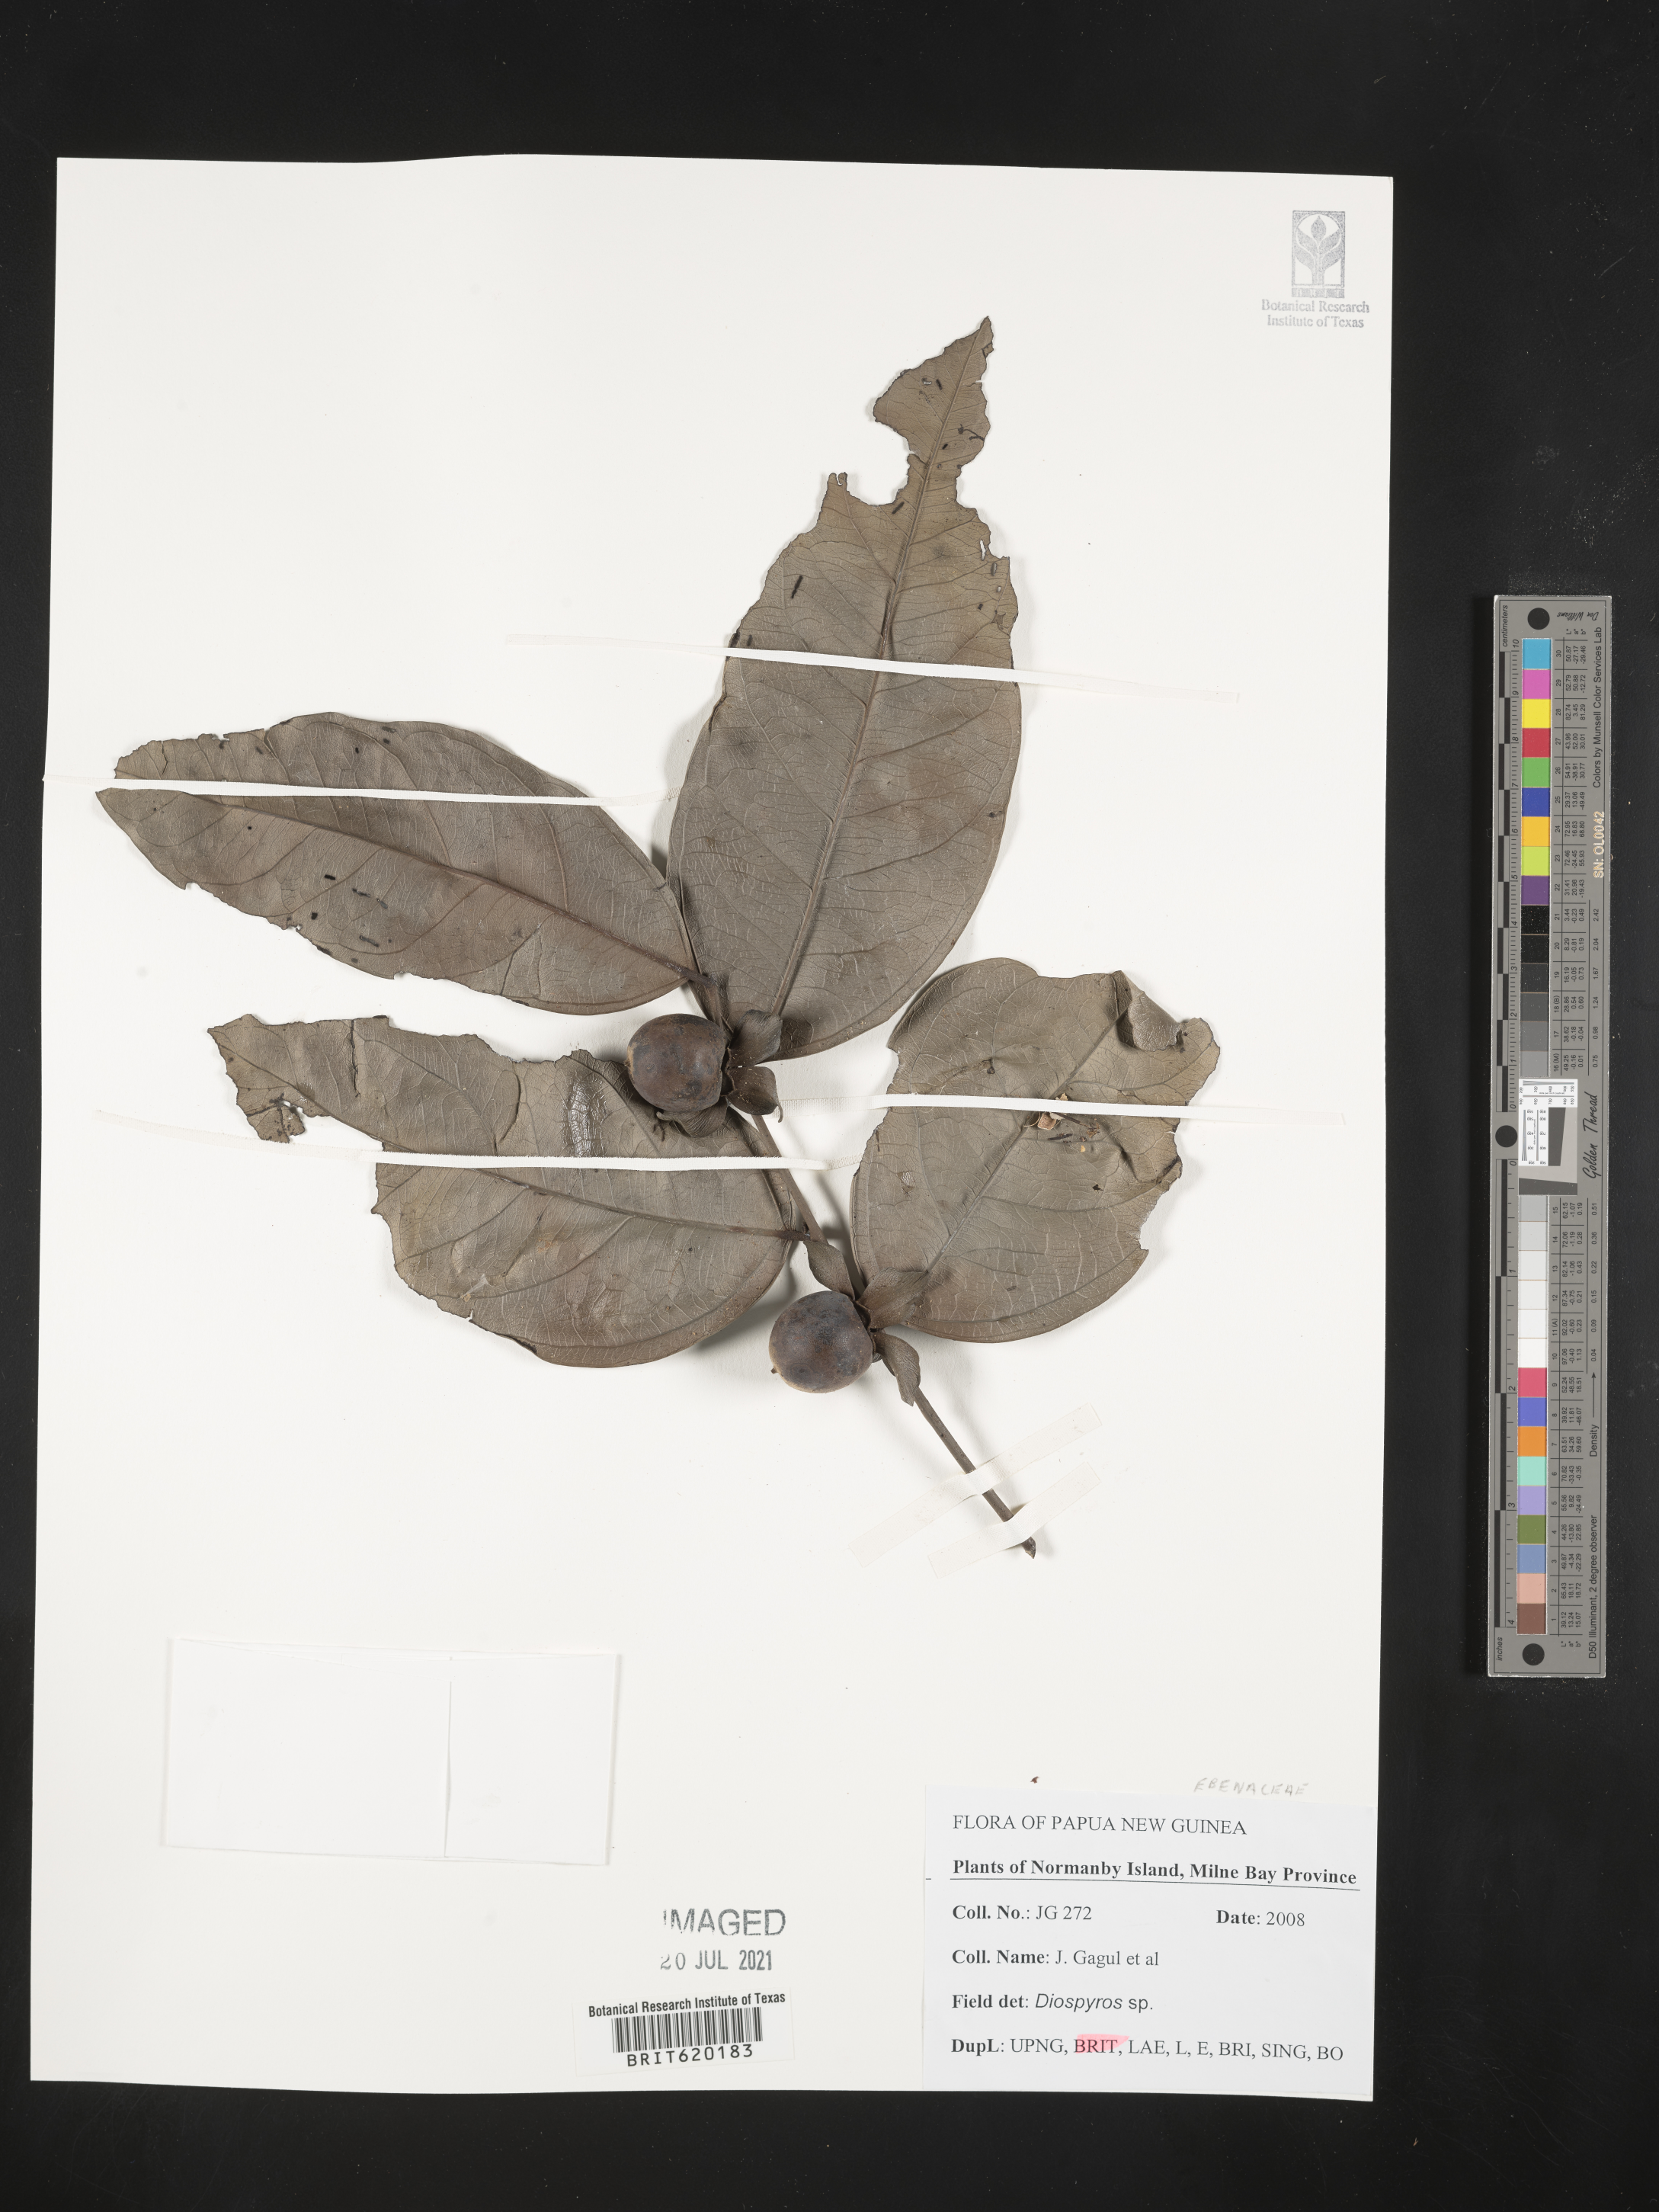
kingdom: Plantae
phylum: Tracheophyta
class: Magnoliopsida
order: Ericales
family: Ebenaceae
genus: Diospyros
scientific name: Diospyros
